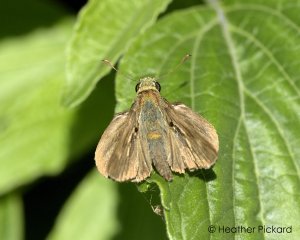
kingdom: Animalia
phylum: Arthropoda
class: Insecta
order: Lepidoptera
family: Hesperiidae
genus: Polites
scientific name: Polites egeremet
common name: Northern Broken-Dash
